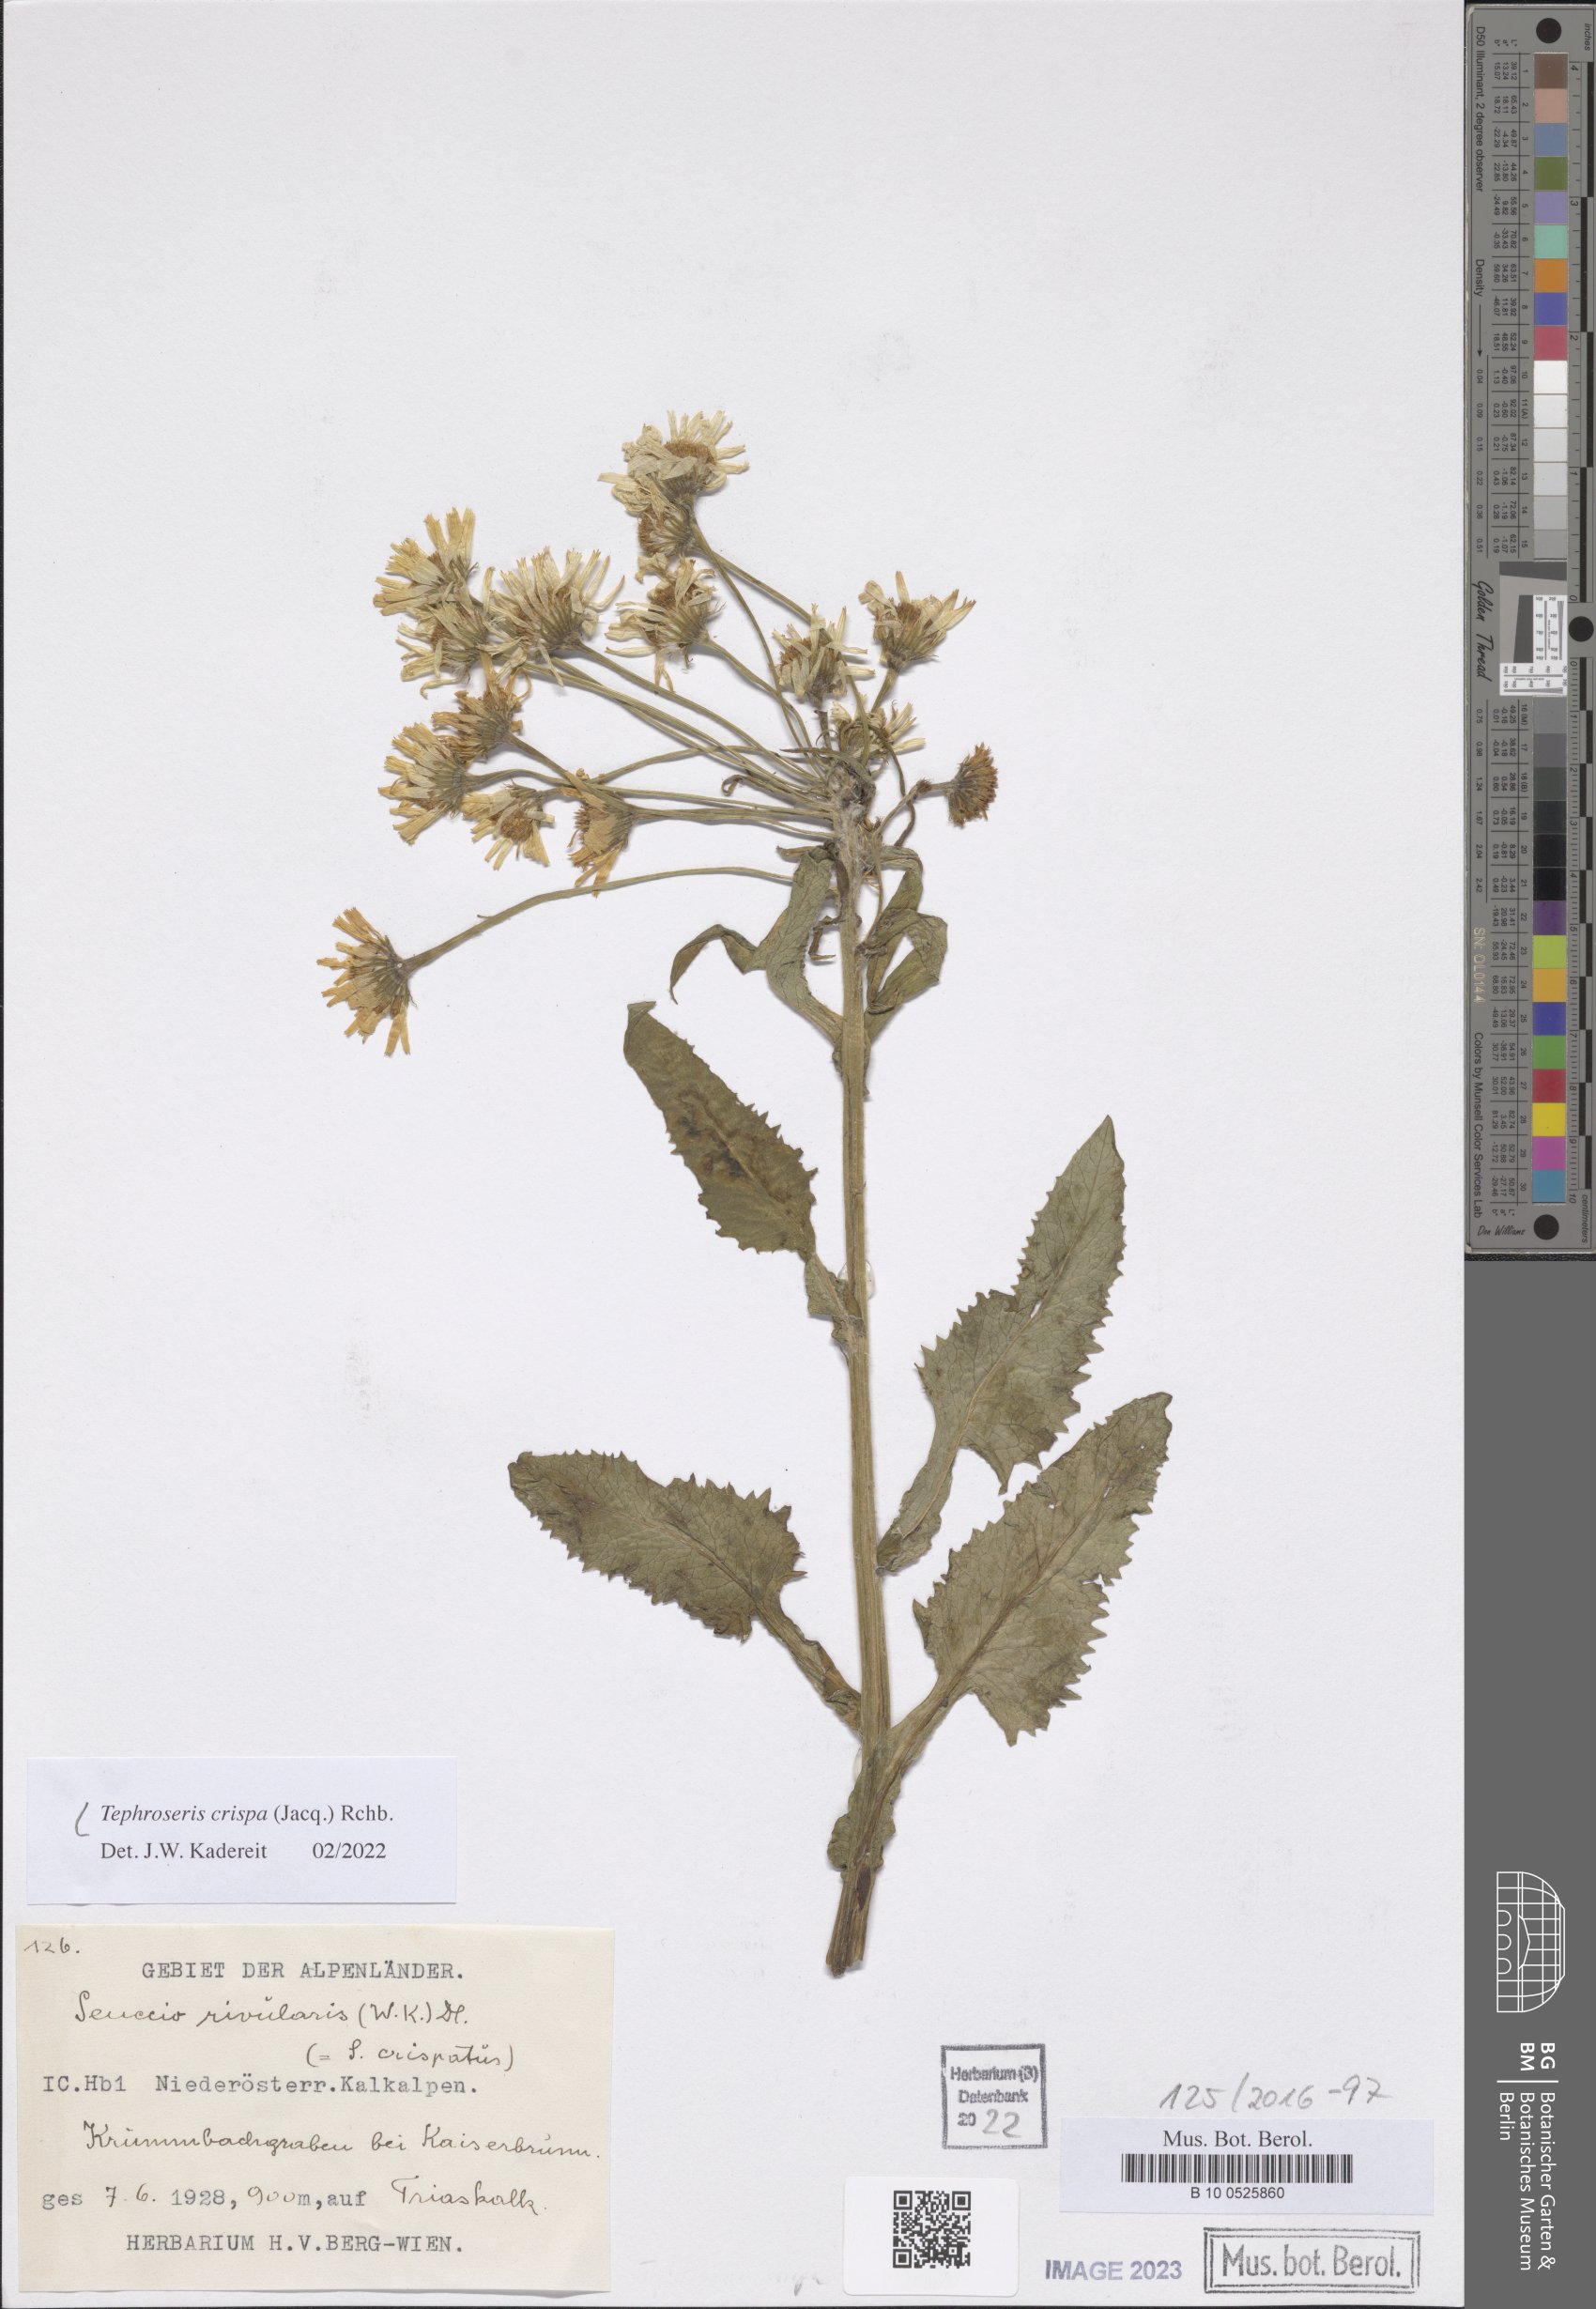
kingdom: Plantae
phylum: Tracheophyta
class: Magnoliopsida
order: Asterales
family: Asteraceae
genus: Tephroseris
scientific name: Tephroseris crispa
